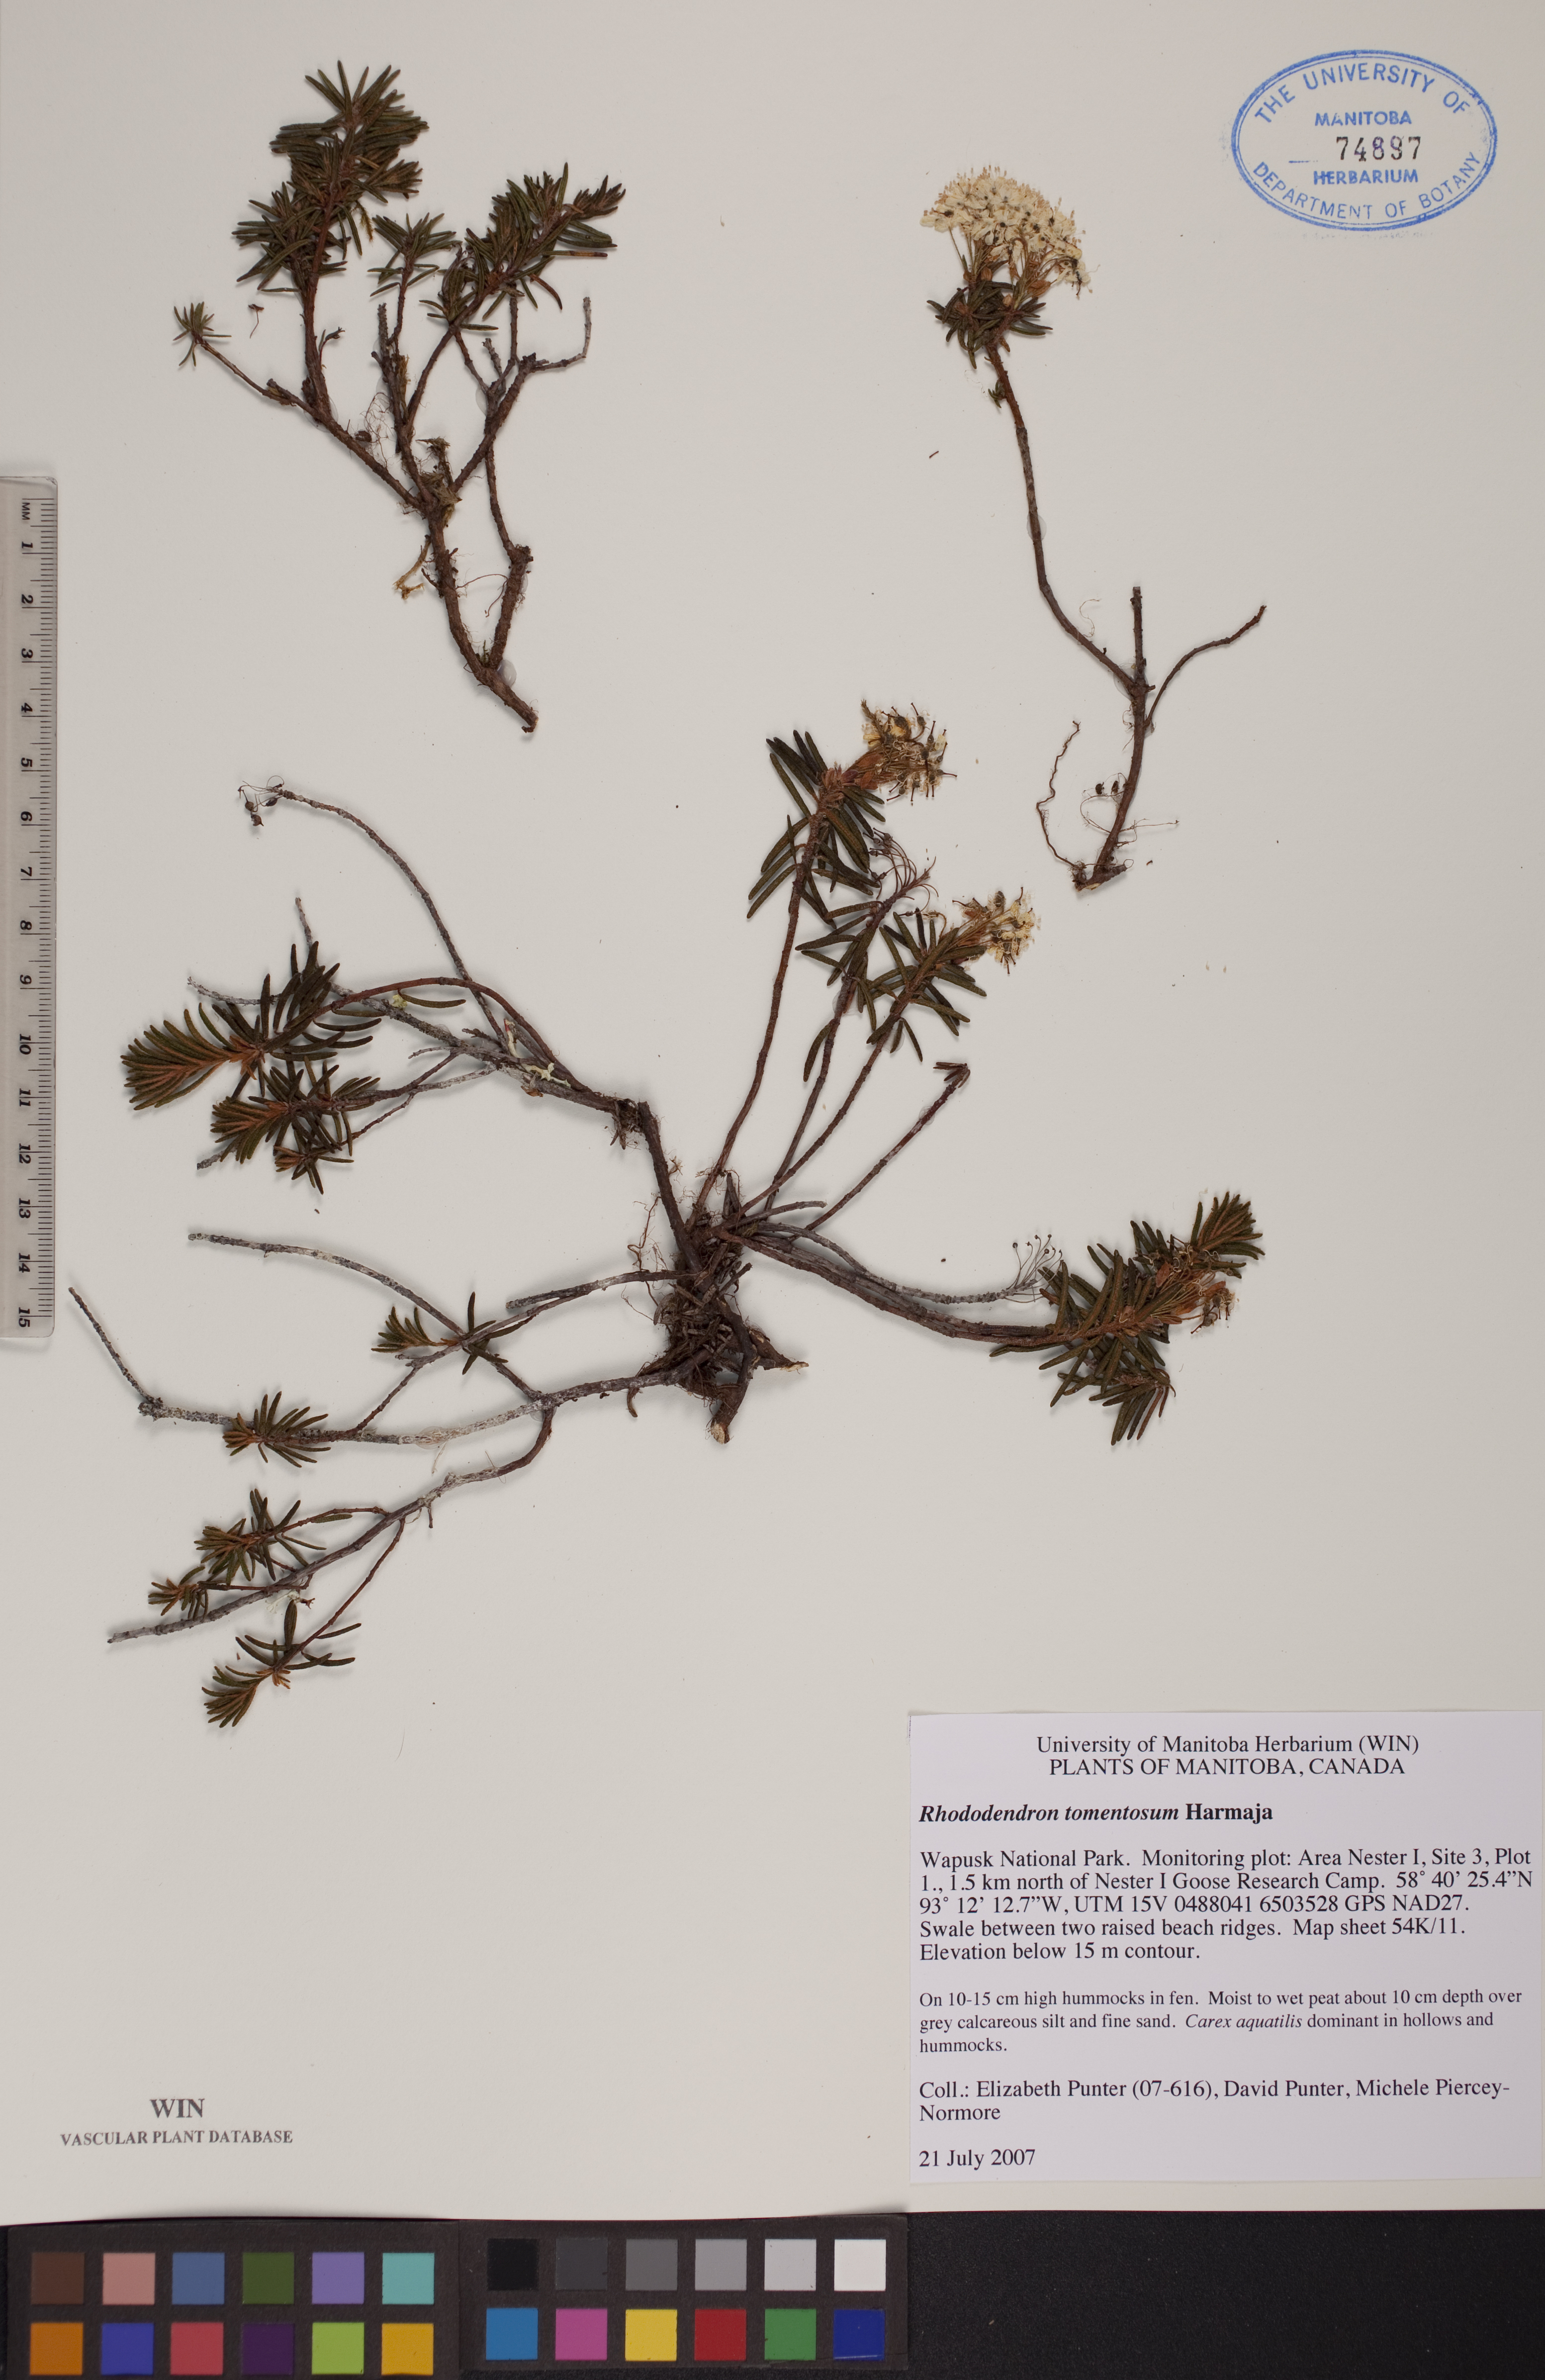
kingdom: Plantae
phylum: Tracheophyta
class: Magnoliopsida
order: Ericales
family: Ericaceae
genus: Rhododendron
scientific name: Rhododendron tomentosum
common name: Marsh labrador tea
